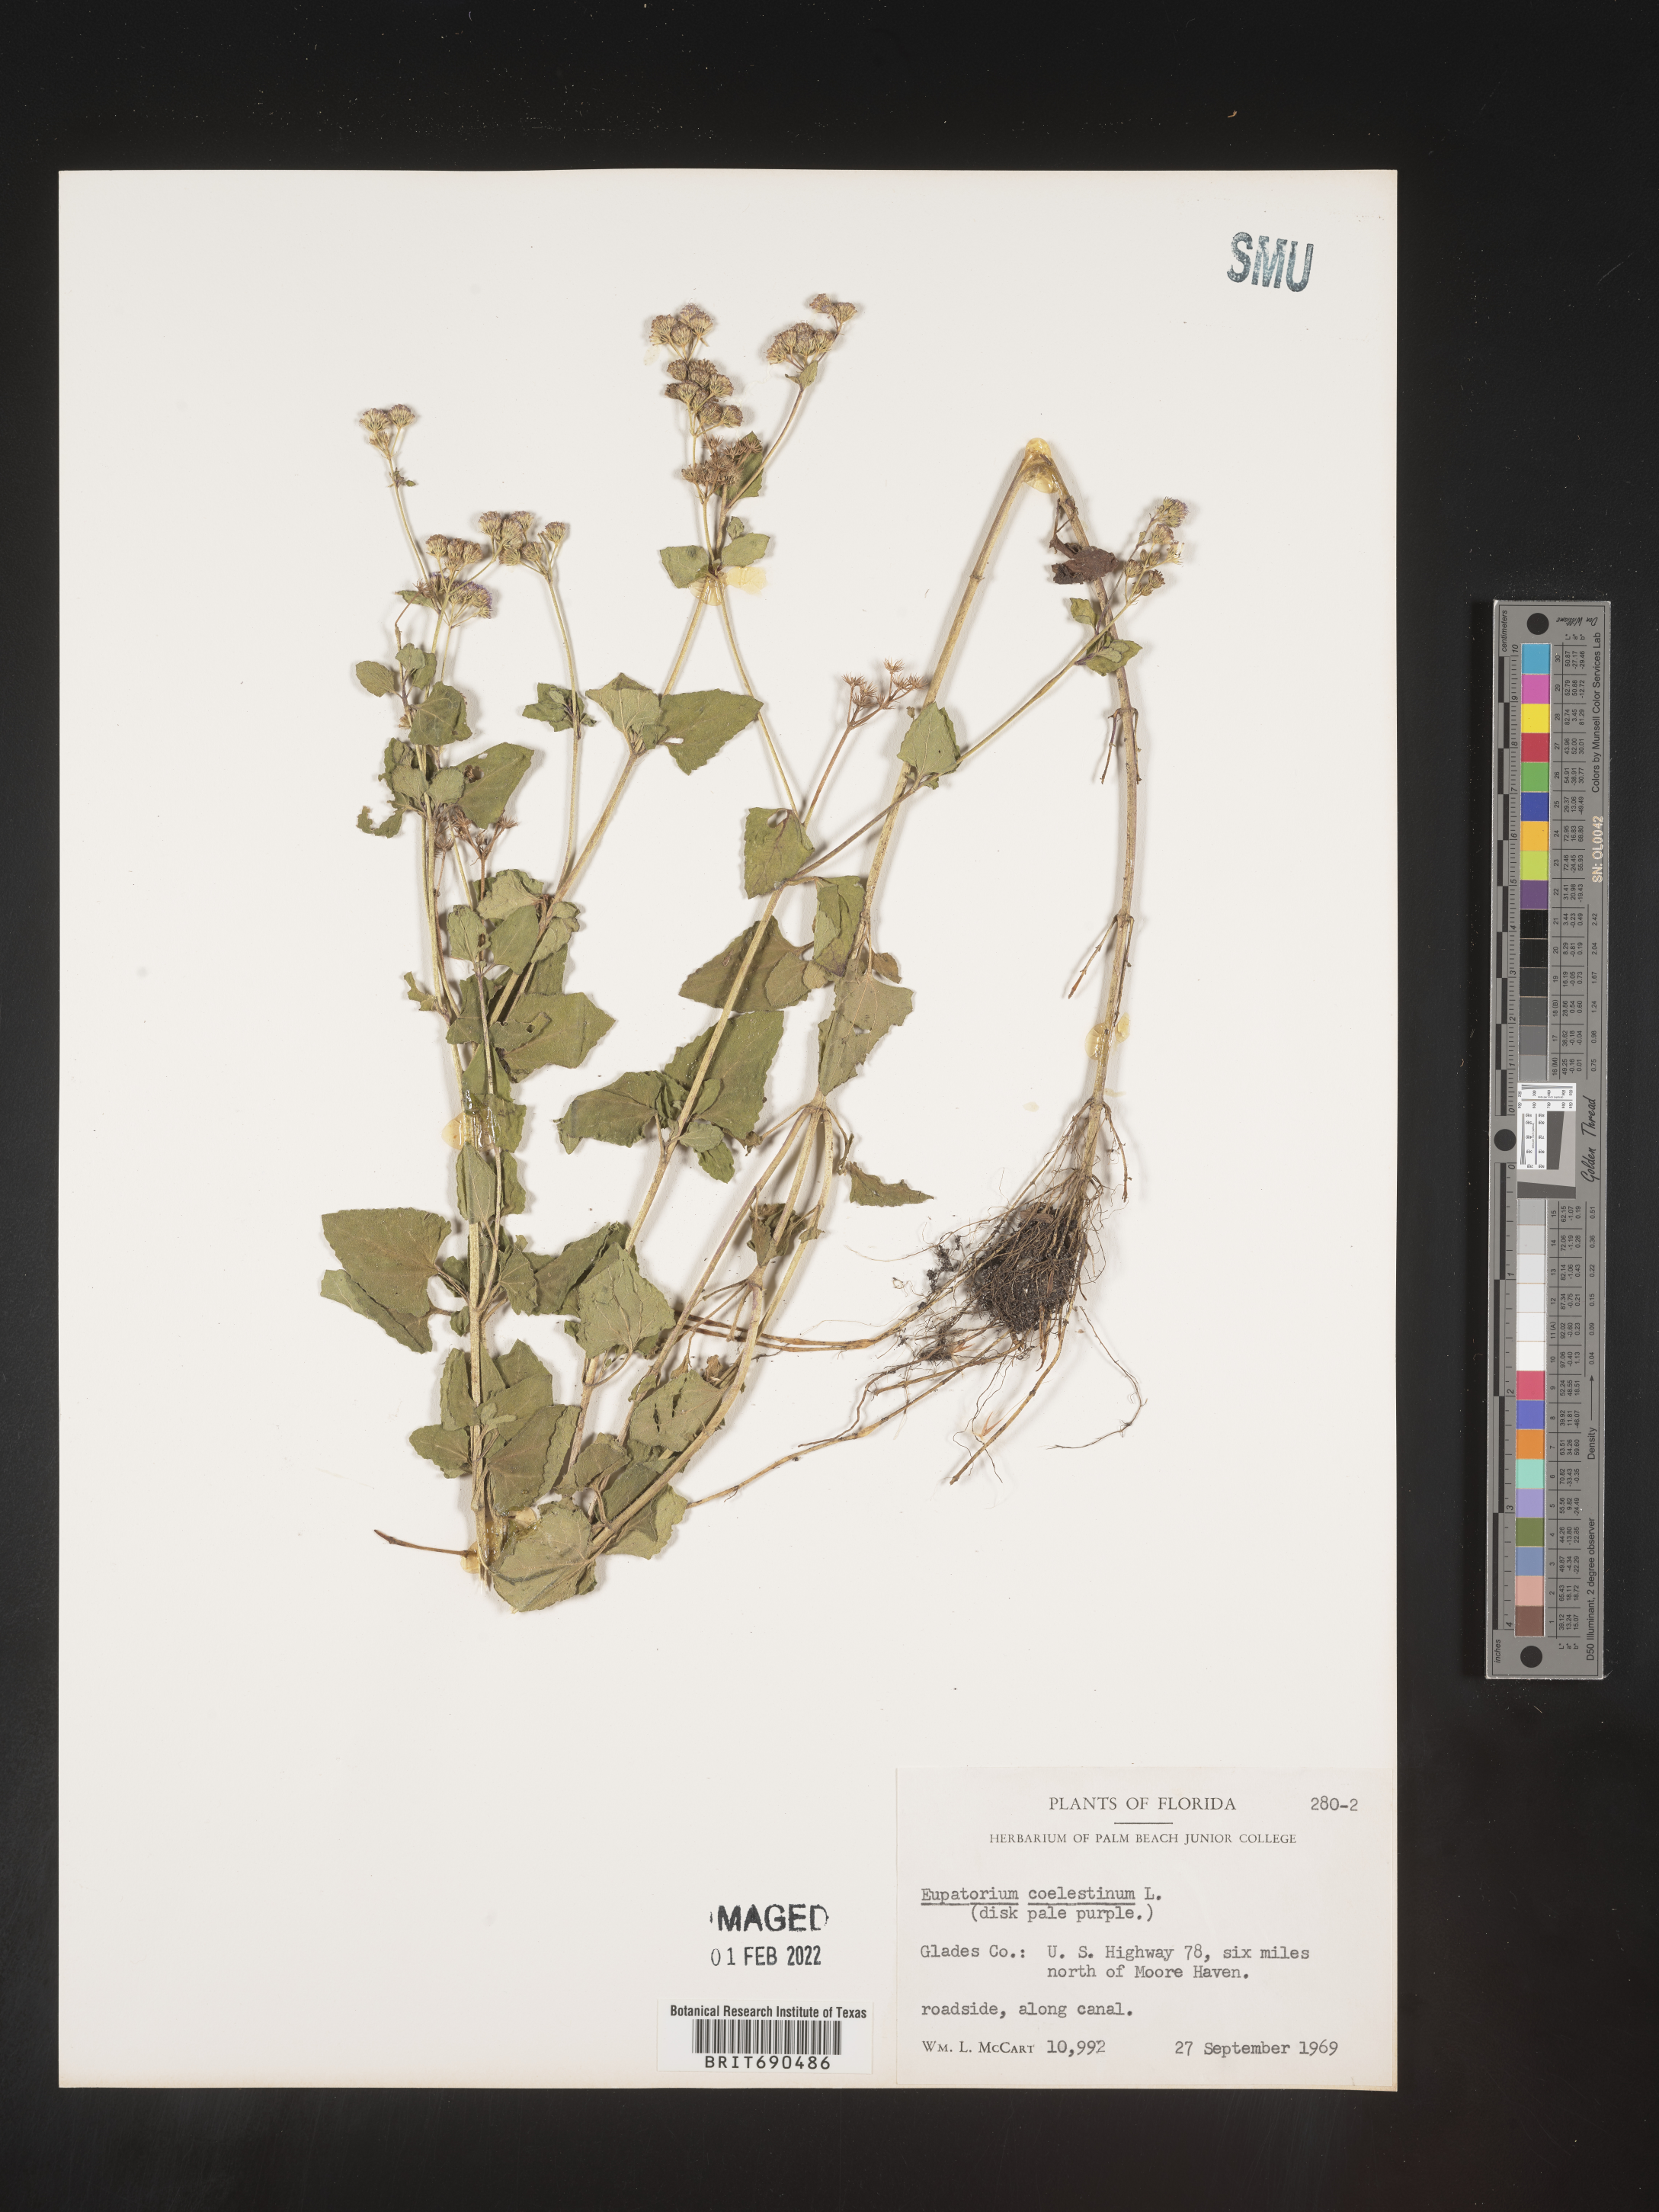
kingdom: Plantae
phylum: Tracheophyta
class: Magnoliopsida
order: Asterales
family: Asteraceae
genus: Conoclinium
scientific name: Conoclinium coelestinum
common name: Blue mistflower
